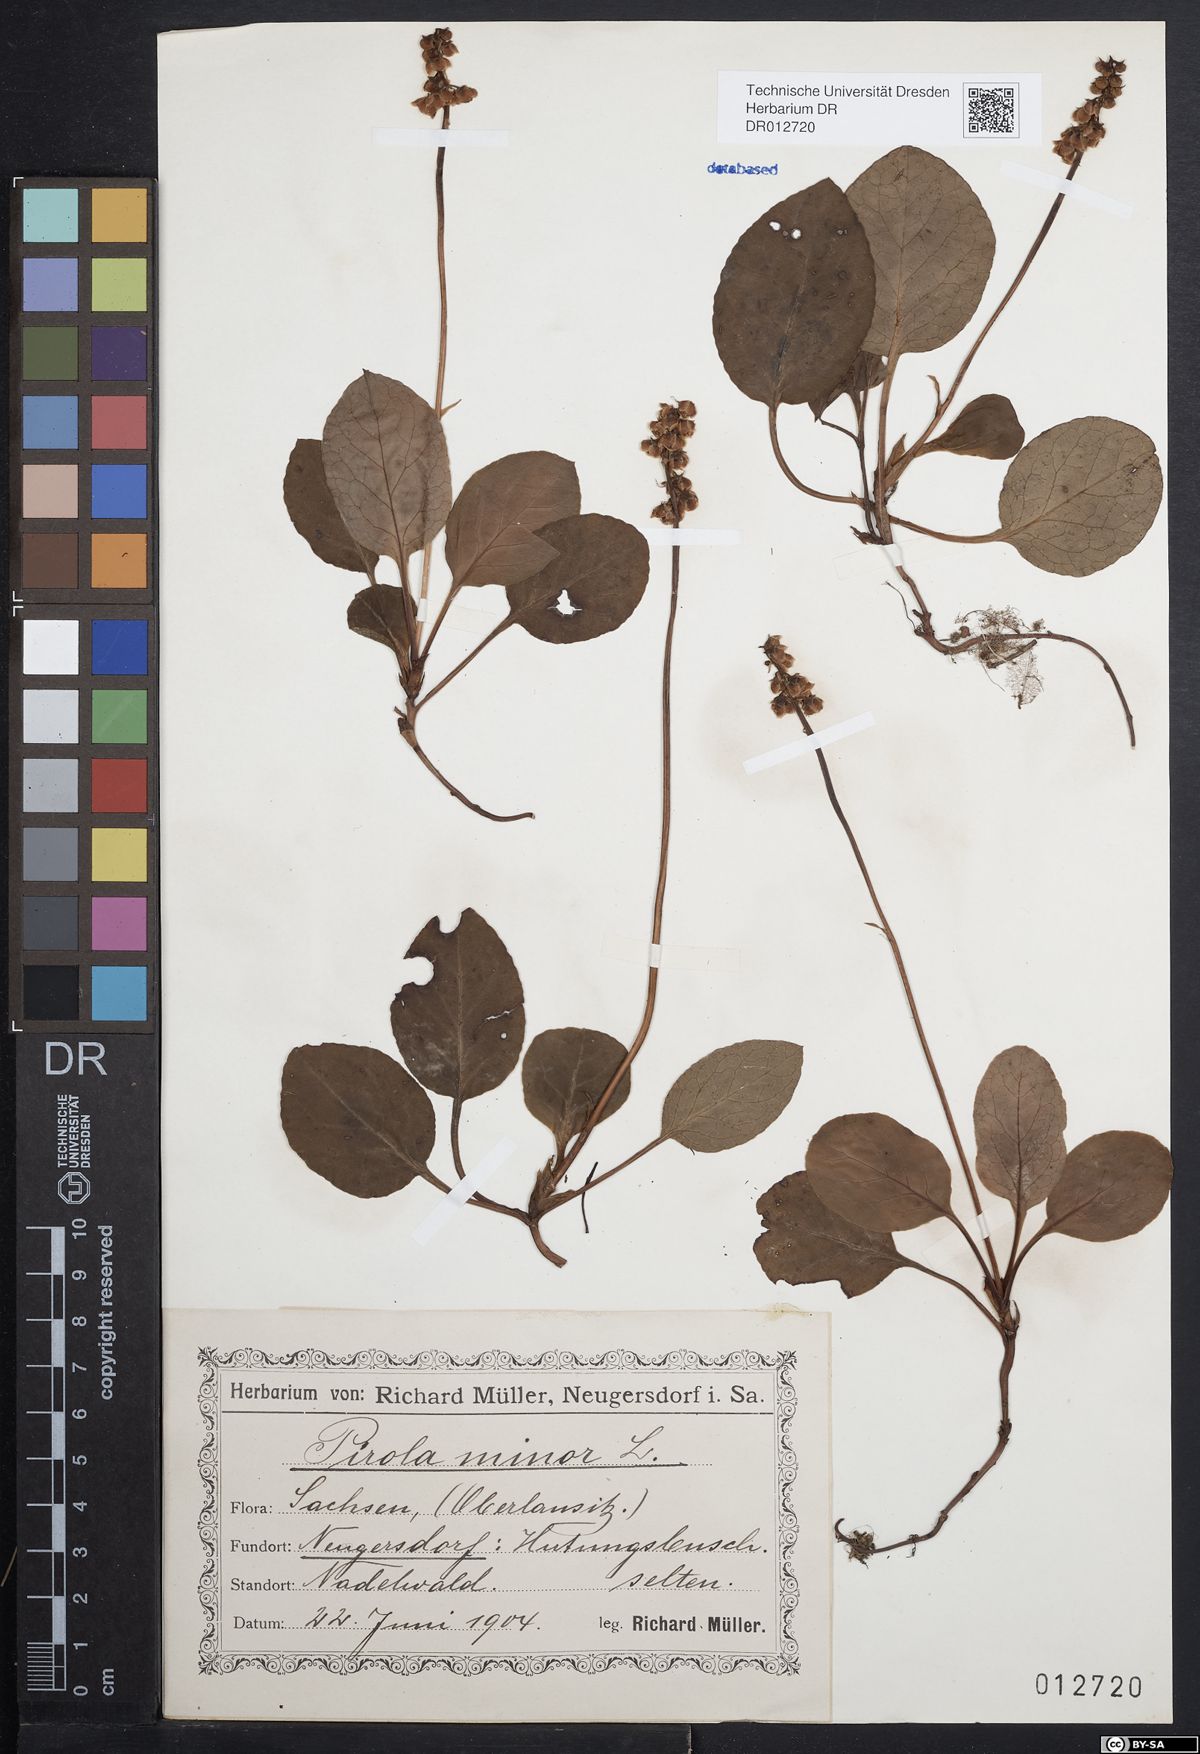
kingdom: Plantae
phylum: Tracheophyta
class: Magnoliopsida
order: Ericales
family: Ericaceae
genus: Pyrola
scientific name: Pyrola minor
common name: Common wintergreen
